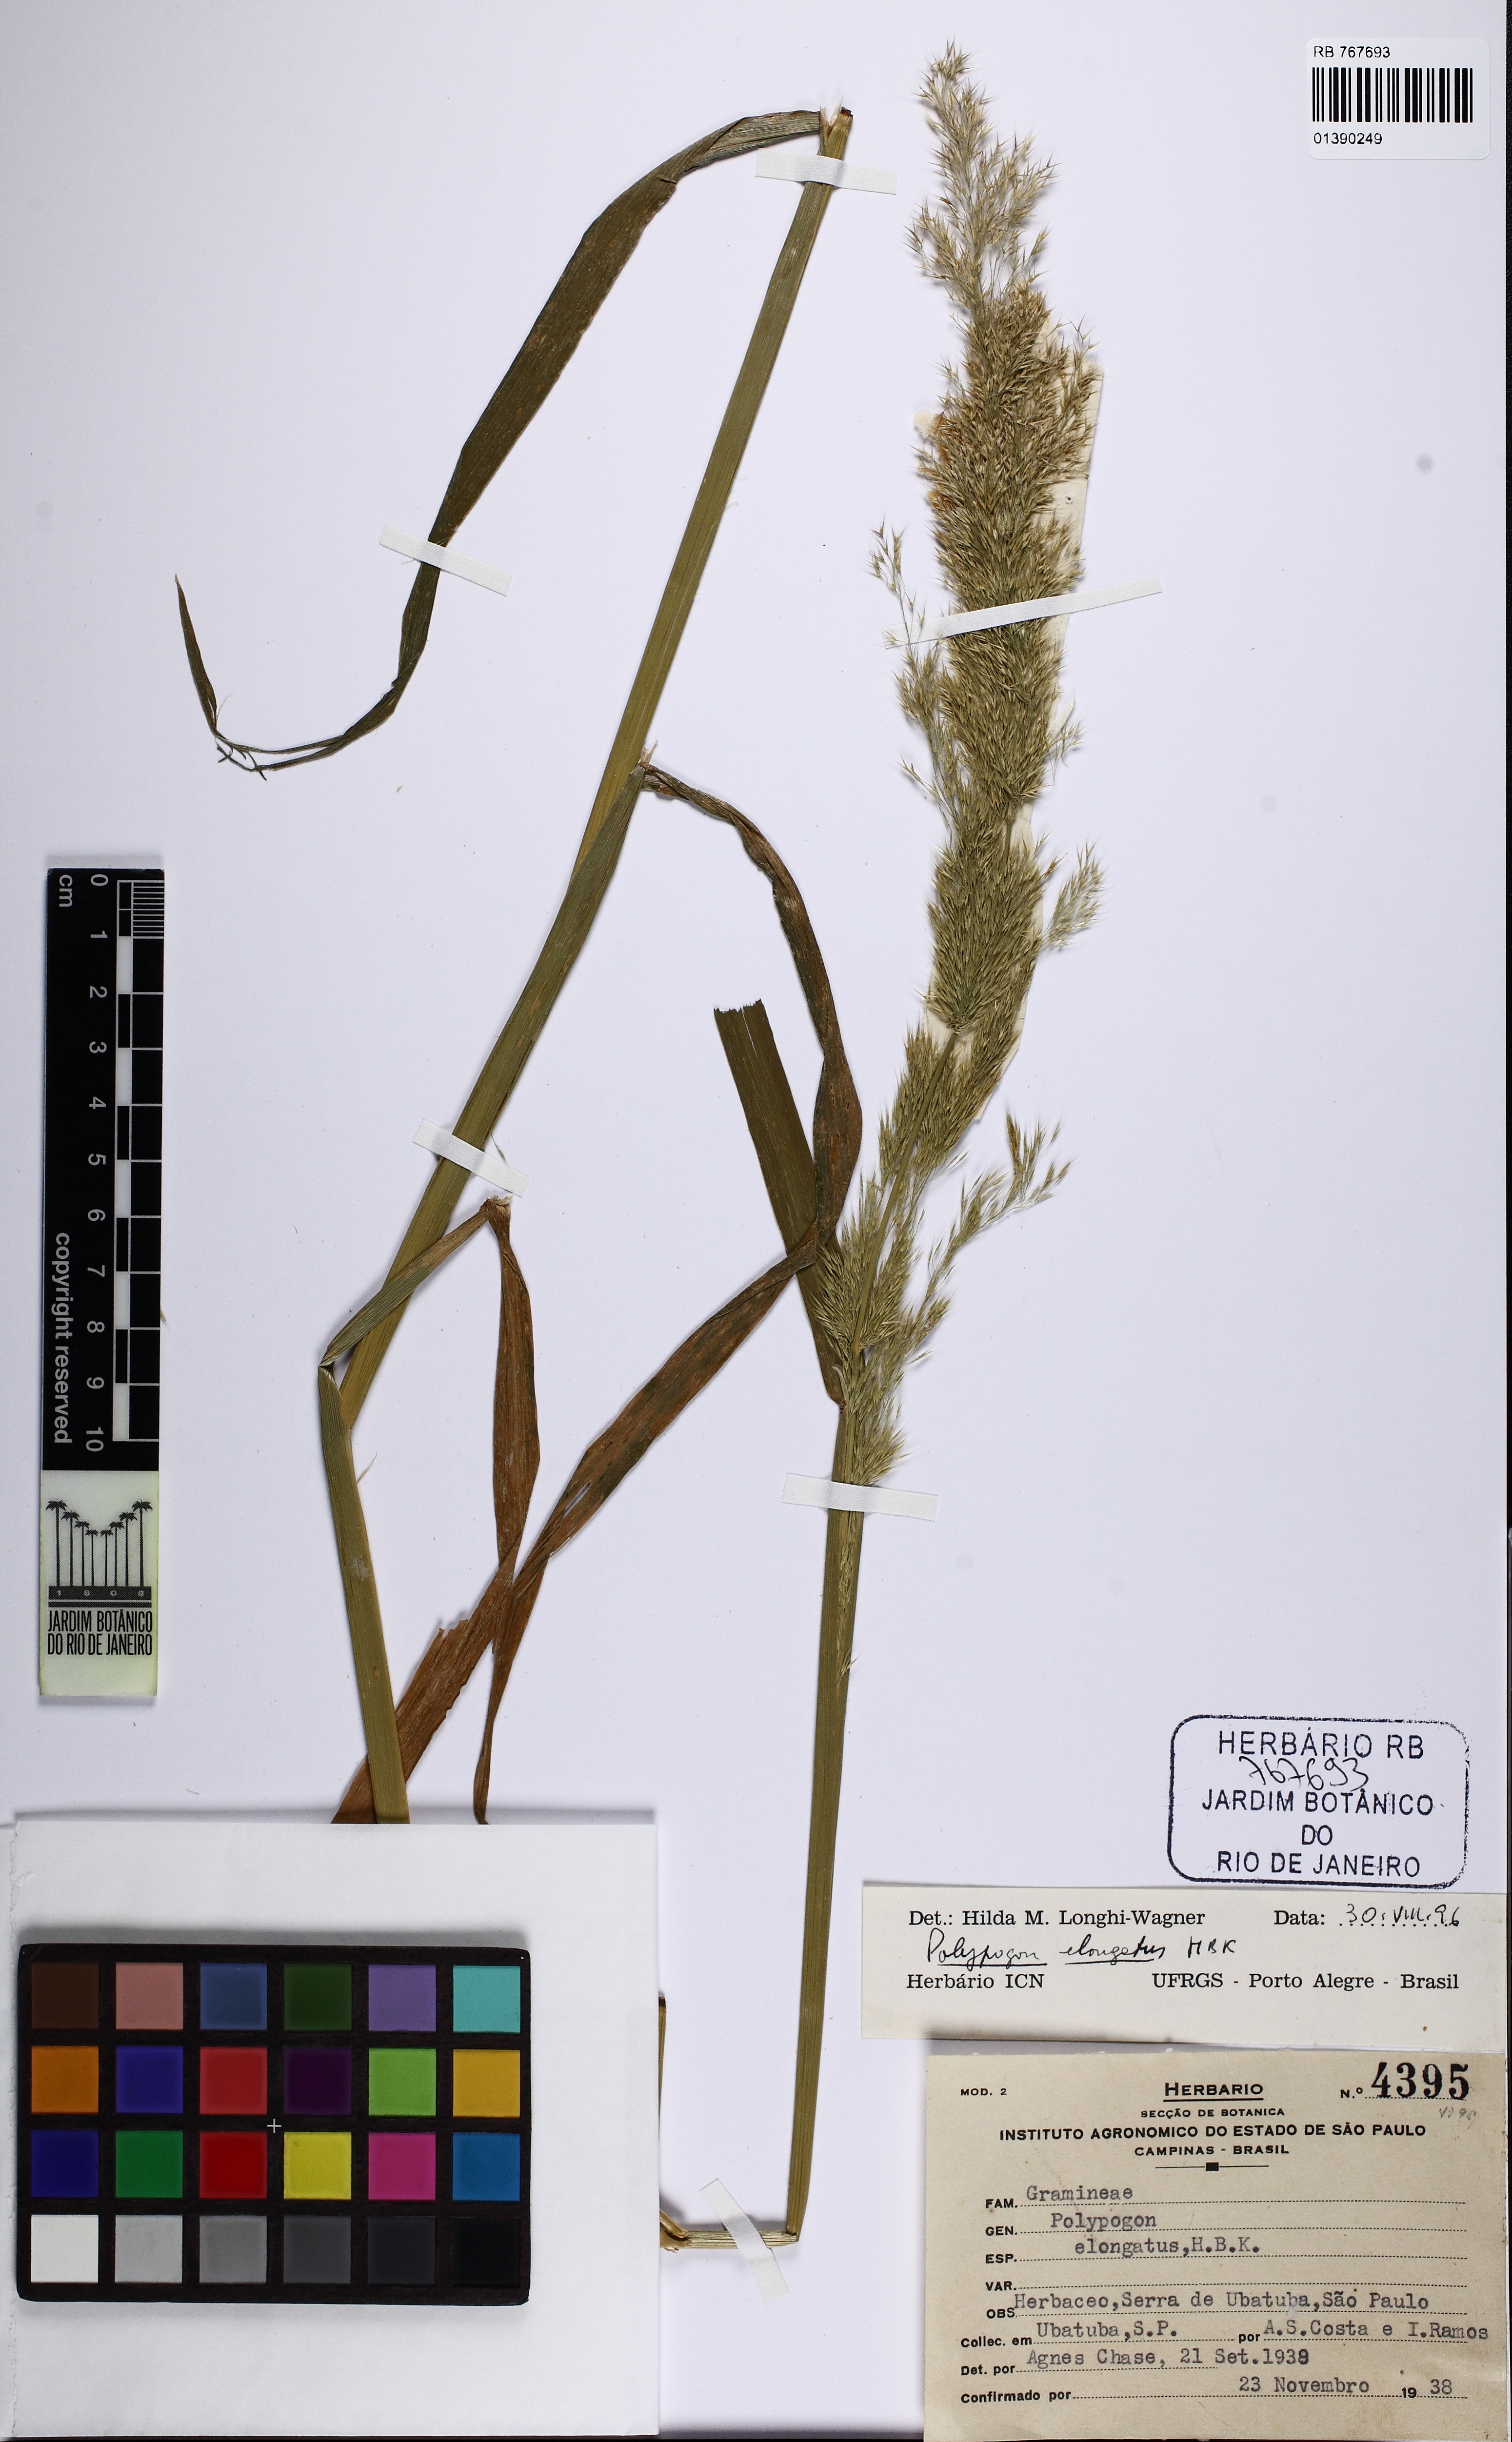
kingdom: Plantae
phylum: Tracheophyta
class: Liliopsida
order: Poales
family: Poaceae
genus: Polypogon
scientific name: Polypogon elongatus
